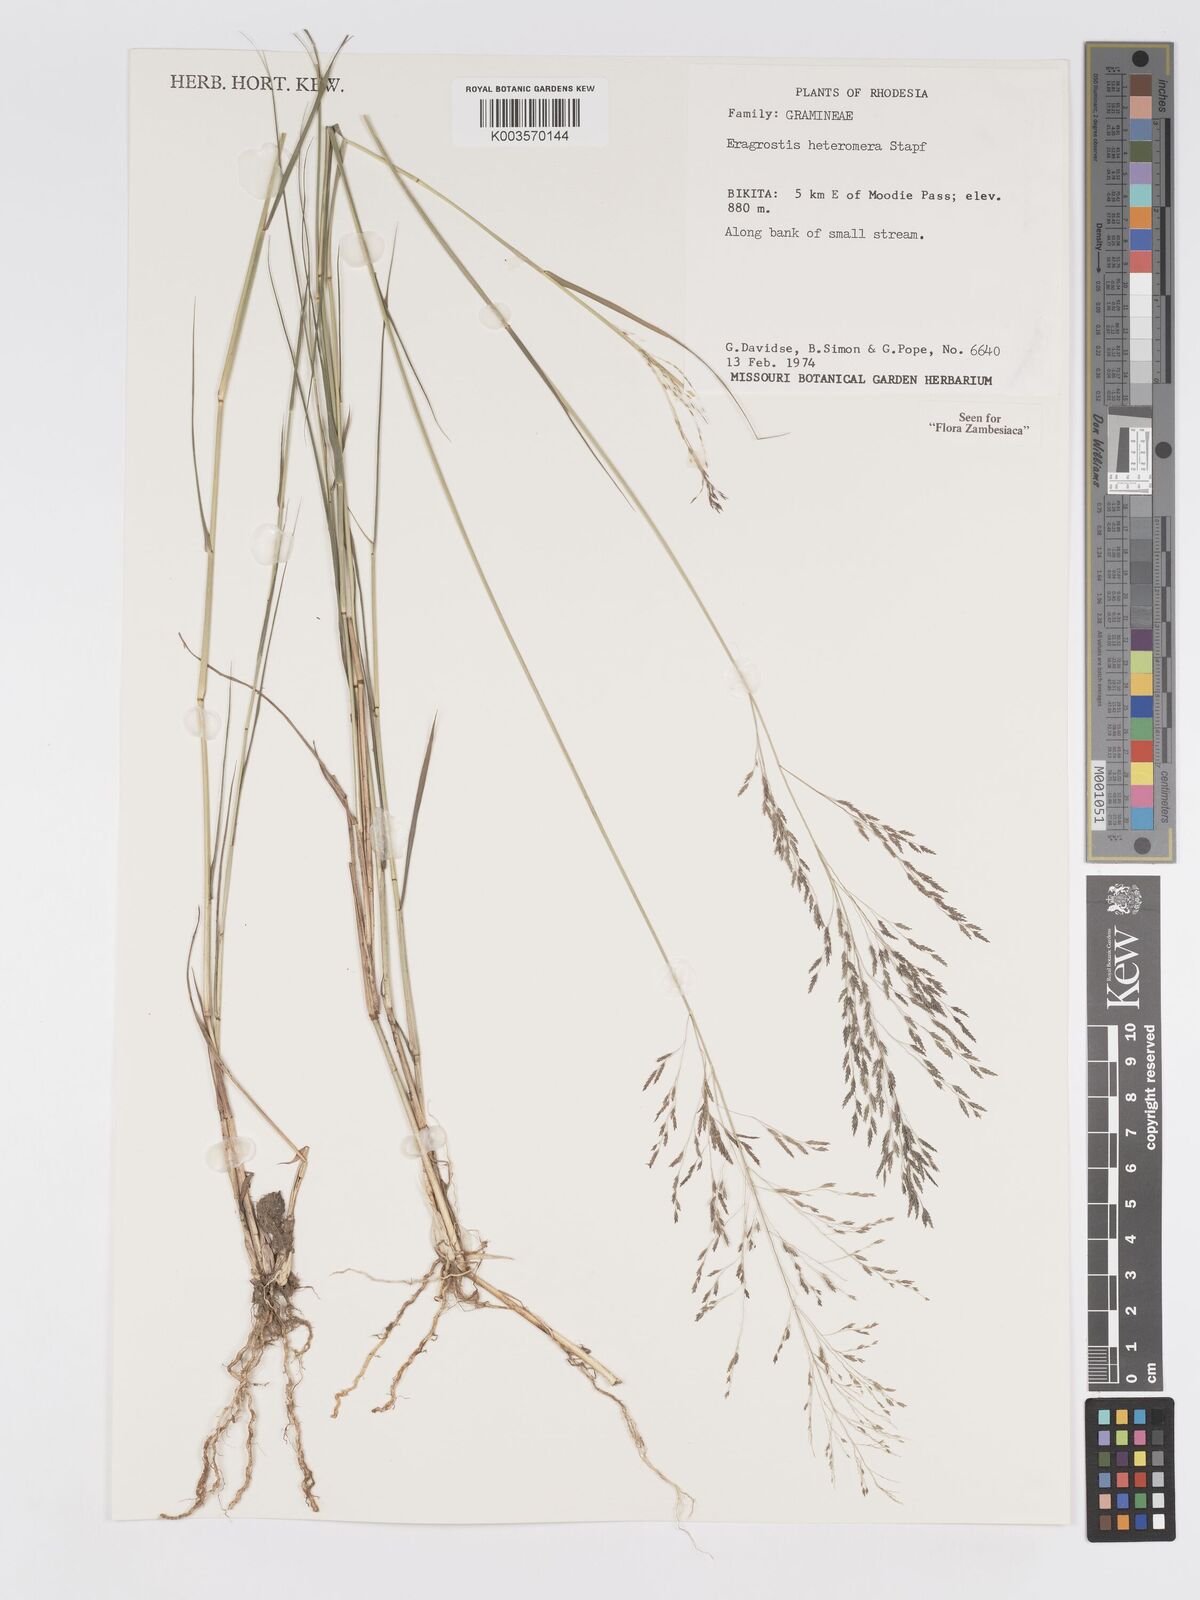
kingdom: Plantae
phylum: Tracheophyta
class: Liliopsida
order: Poales
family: Poaceae
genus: Eragrostis
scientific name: Eragrostis heteromera
